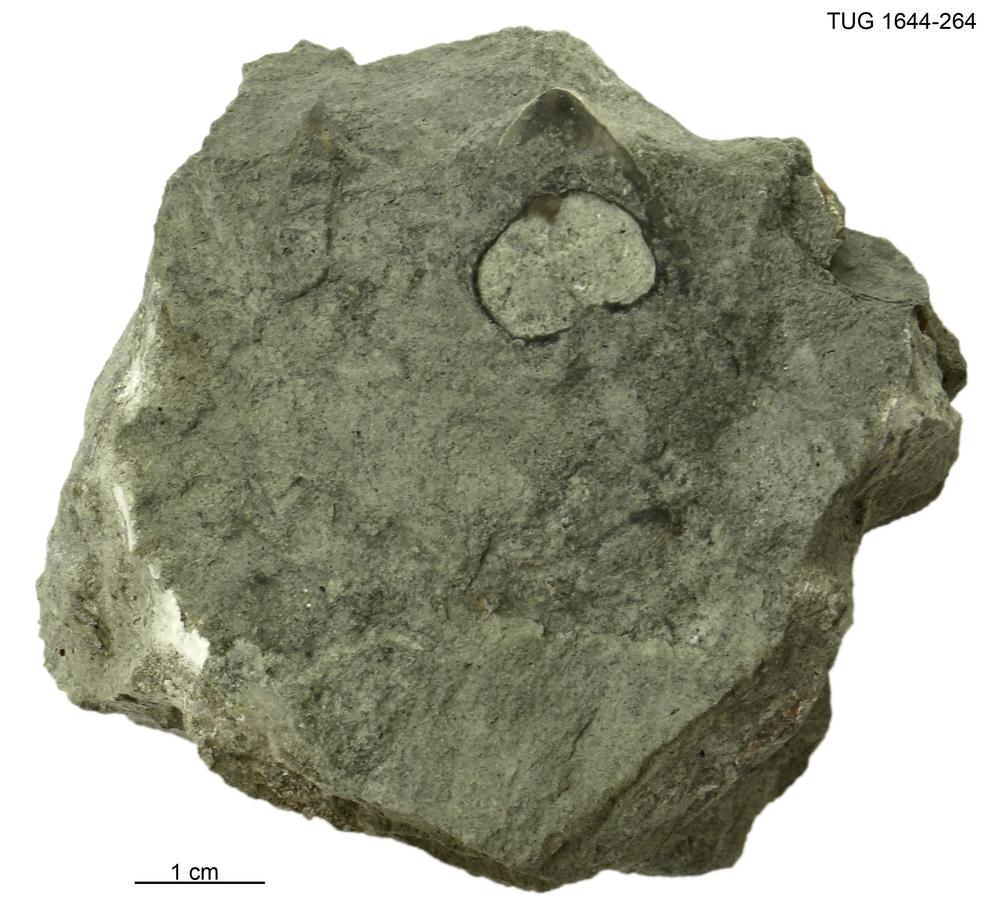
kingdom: Animalia
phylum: Mollusca
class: Monoplacophora
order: Tryblidiida
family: Tryblidiidae
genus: Pilina
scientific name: Pilina
